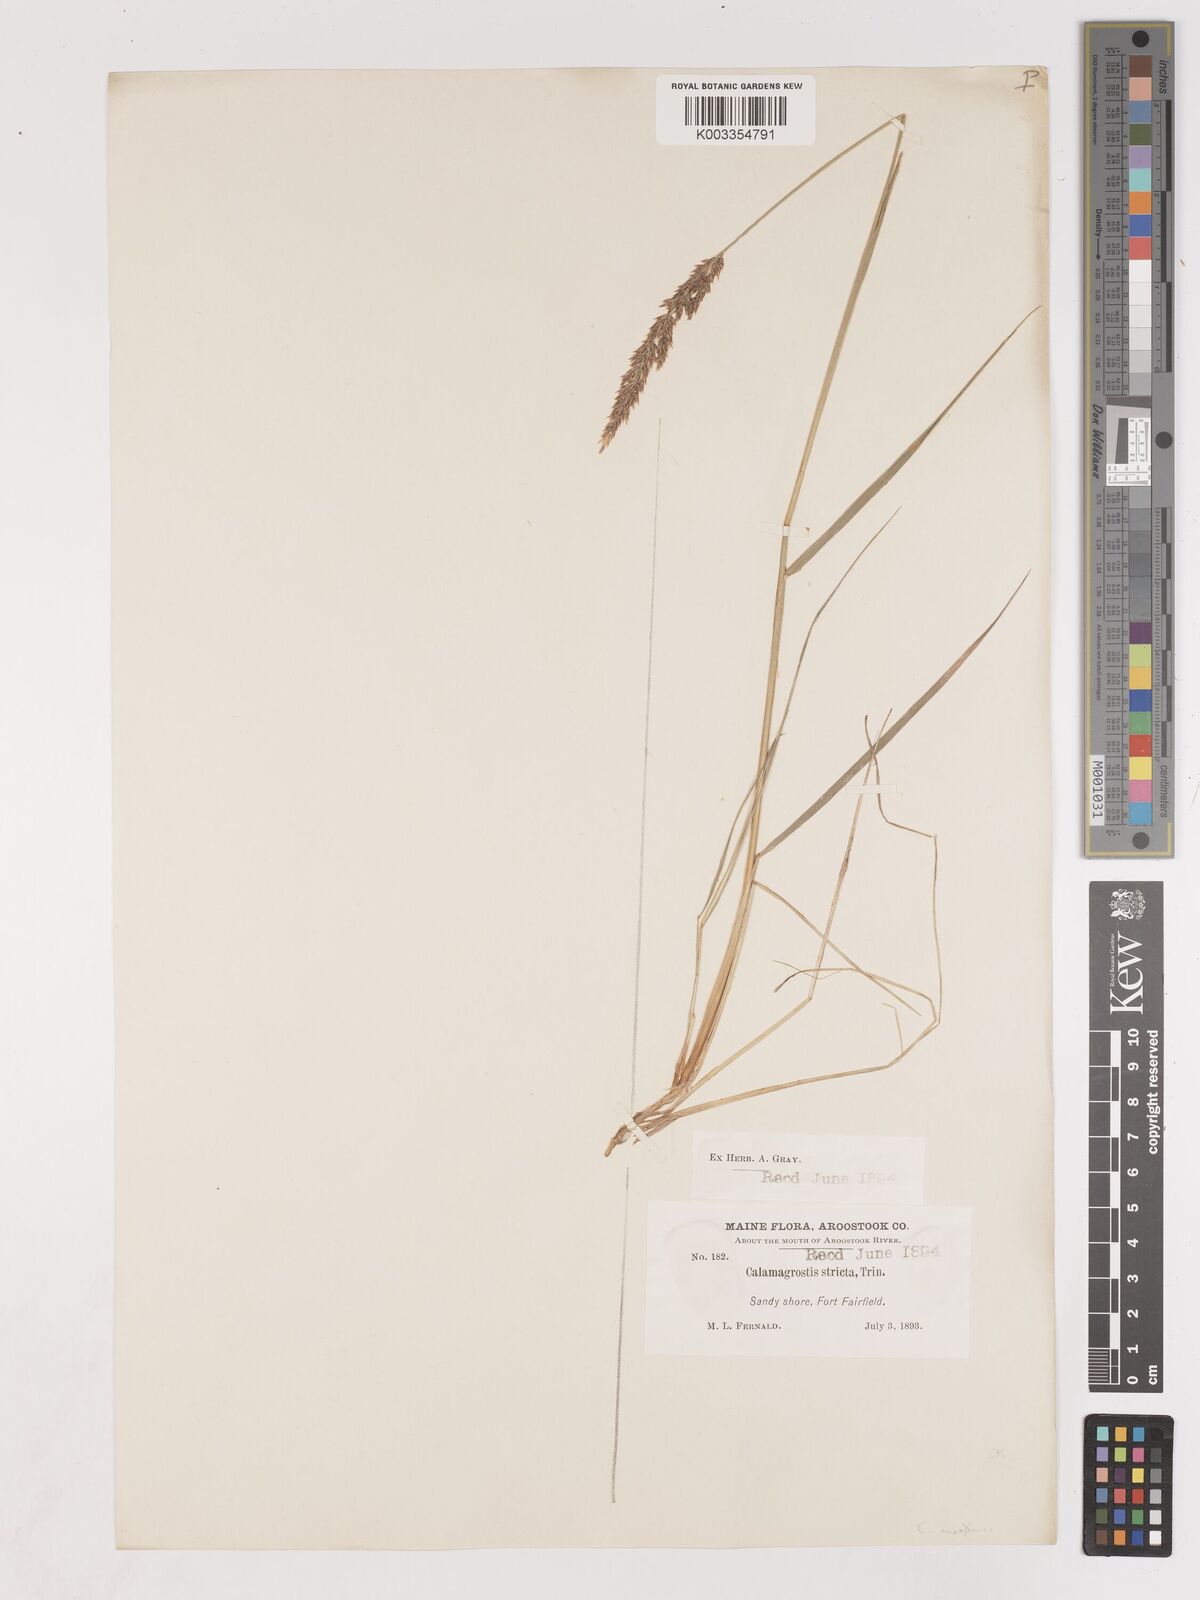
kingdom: Plantae
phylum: Tracheophyta
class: Liliopsida
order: Poales
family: Poaceae
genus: Cinnagrostis
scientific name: Cinnagrostis recta
